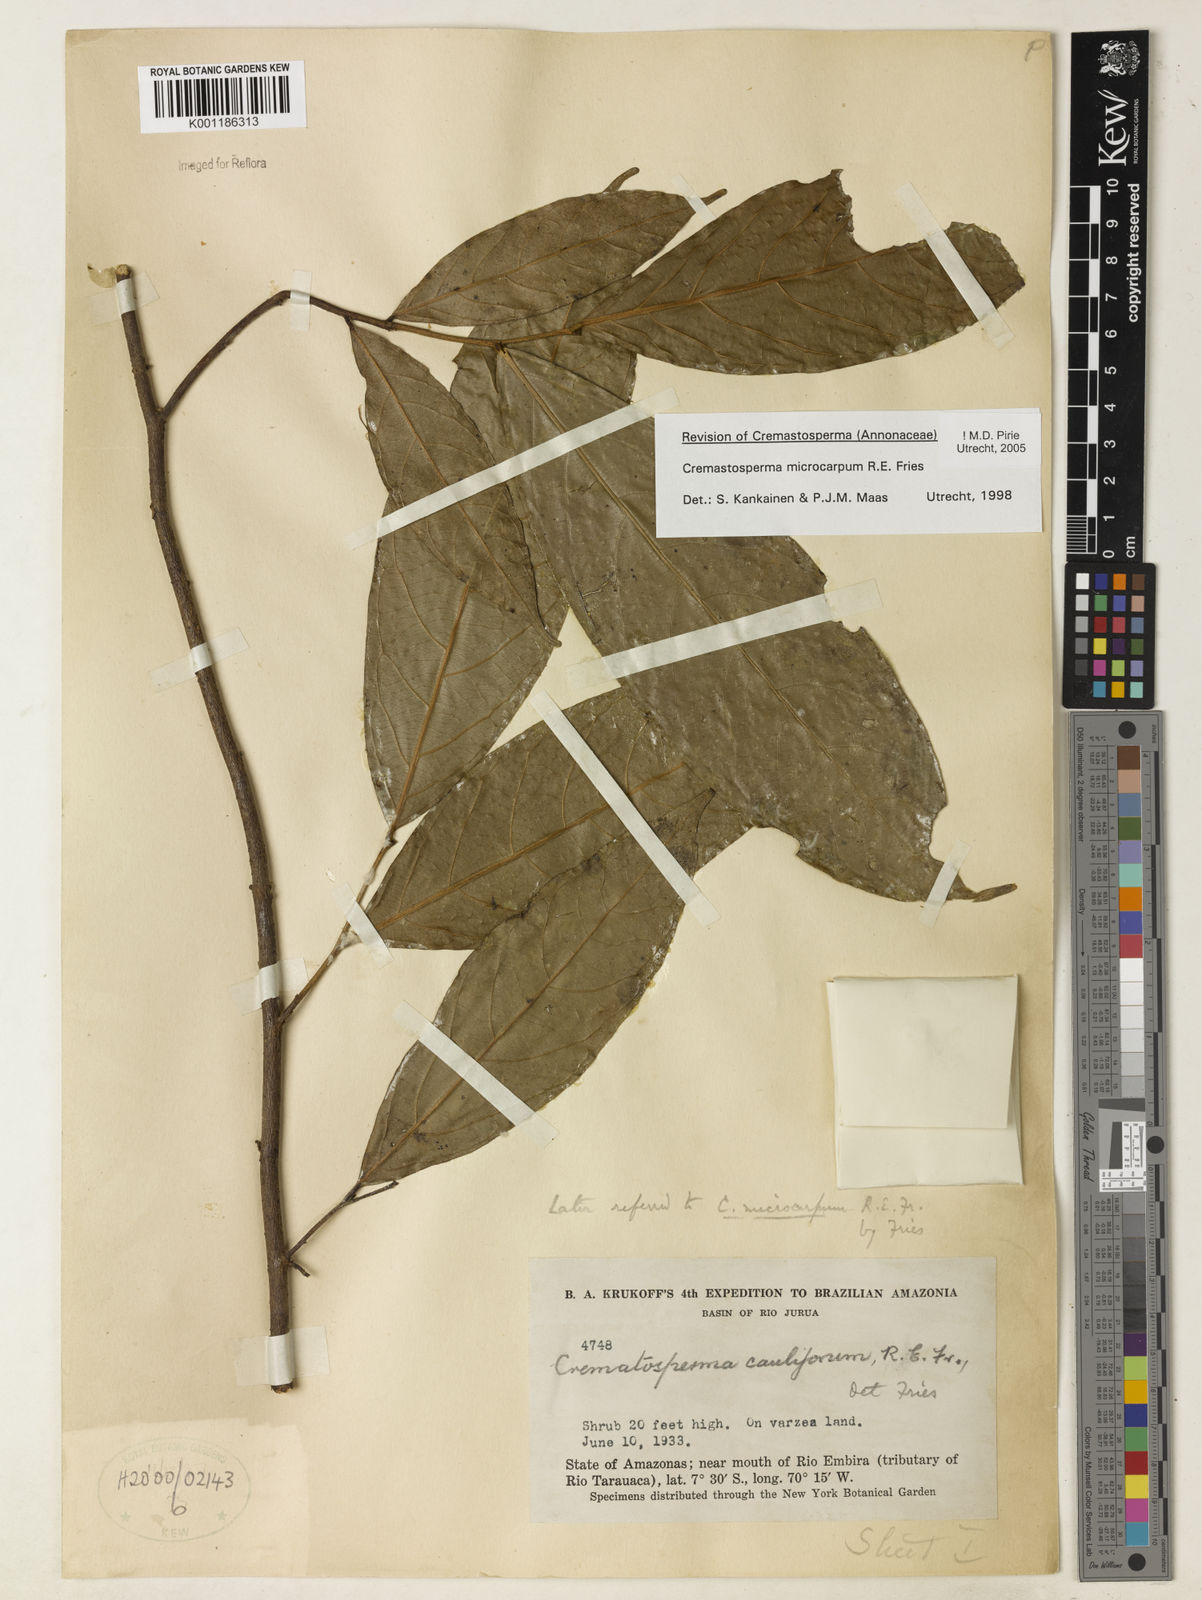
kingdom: Plantae
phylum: Tracheophyta
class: Magnoliopsida
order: Magnoliales
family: Annonaceae
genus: Cremastosperma
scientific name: Cremastosperma microcarpum
